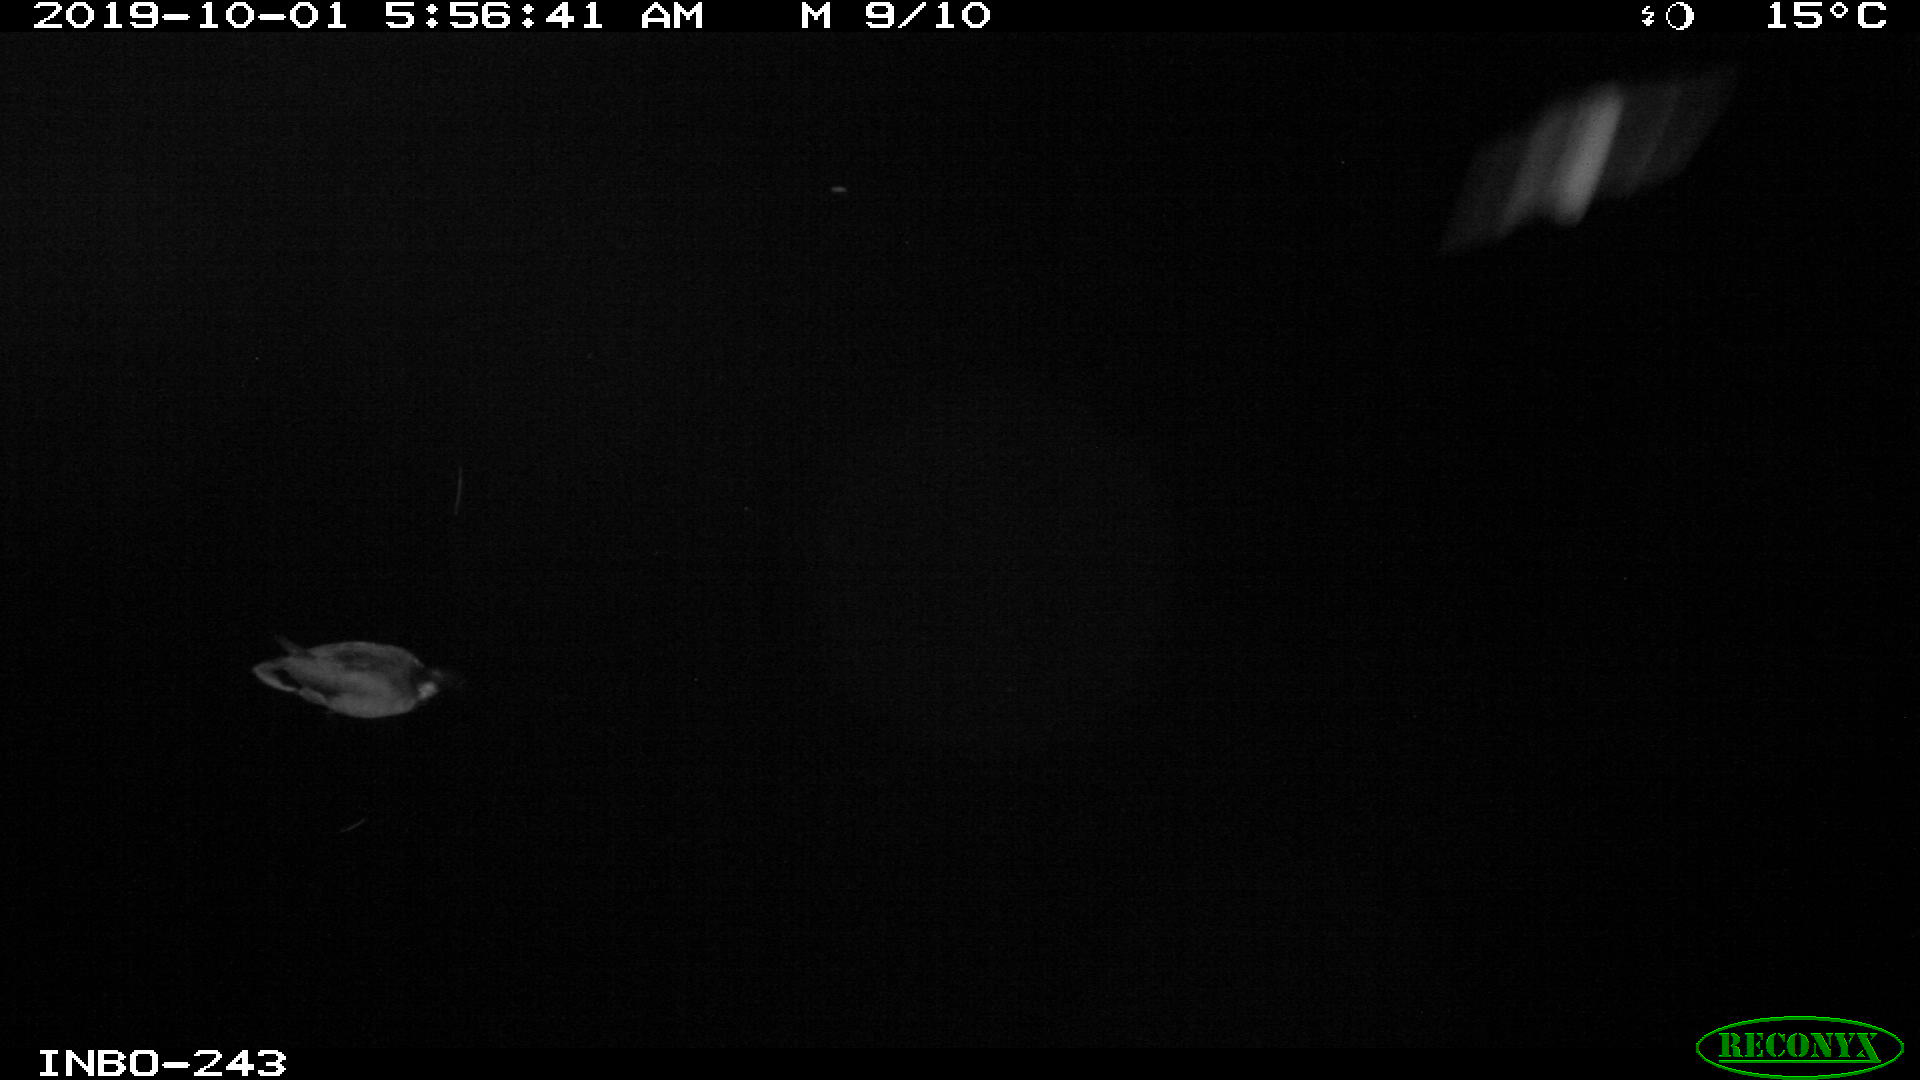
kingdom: Animalia
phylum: Chordata
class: Aves
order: Anseriformes
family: Anatidae
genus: Anas
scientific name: Anas platyrhynchos
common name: Mallard
